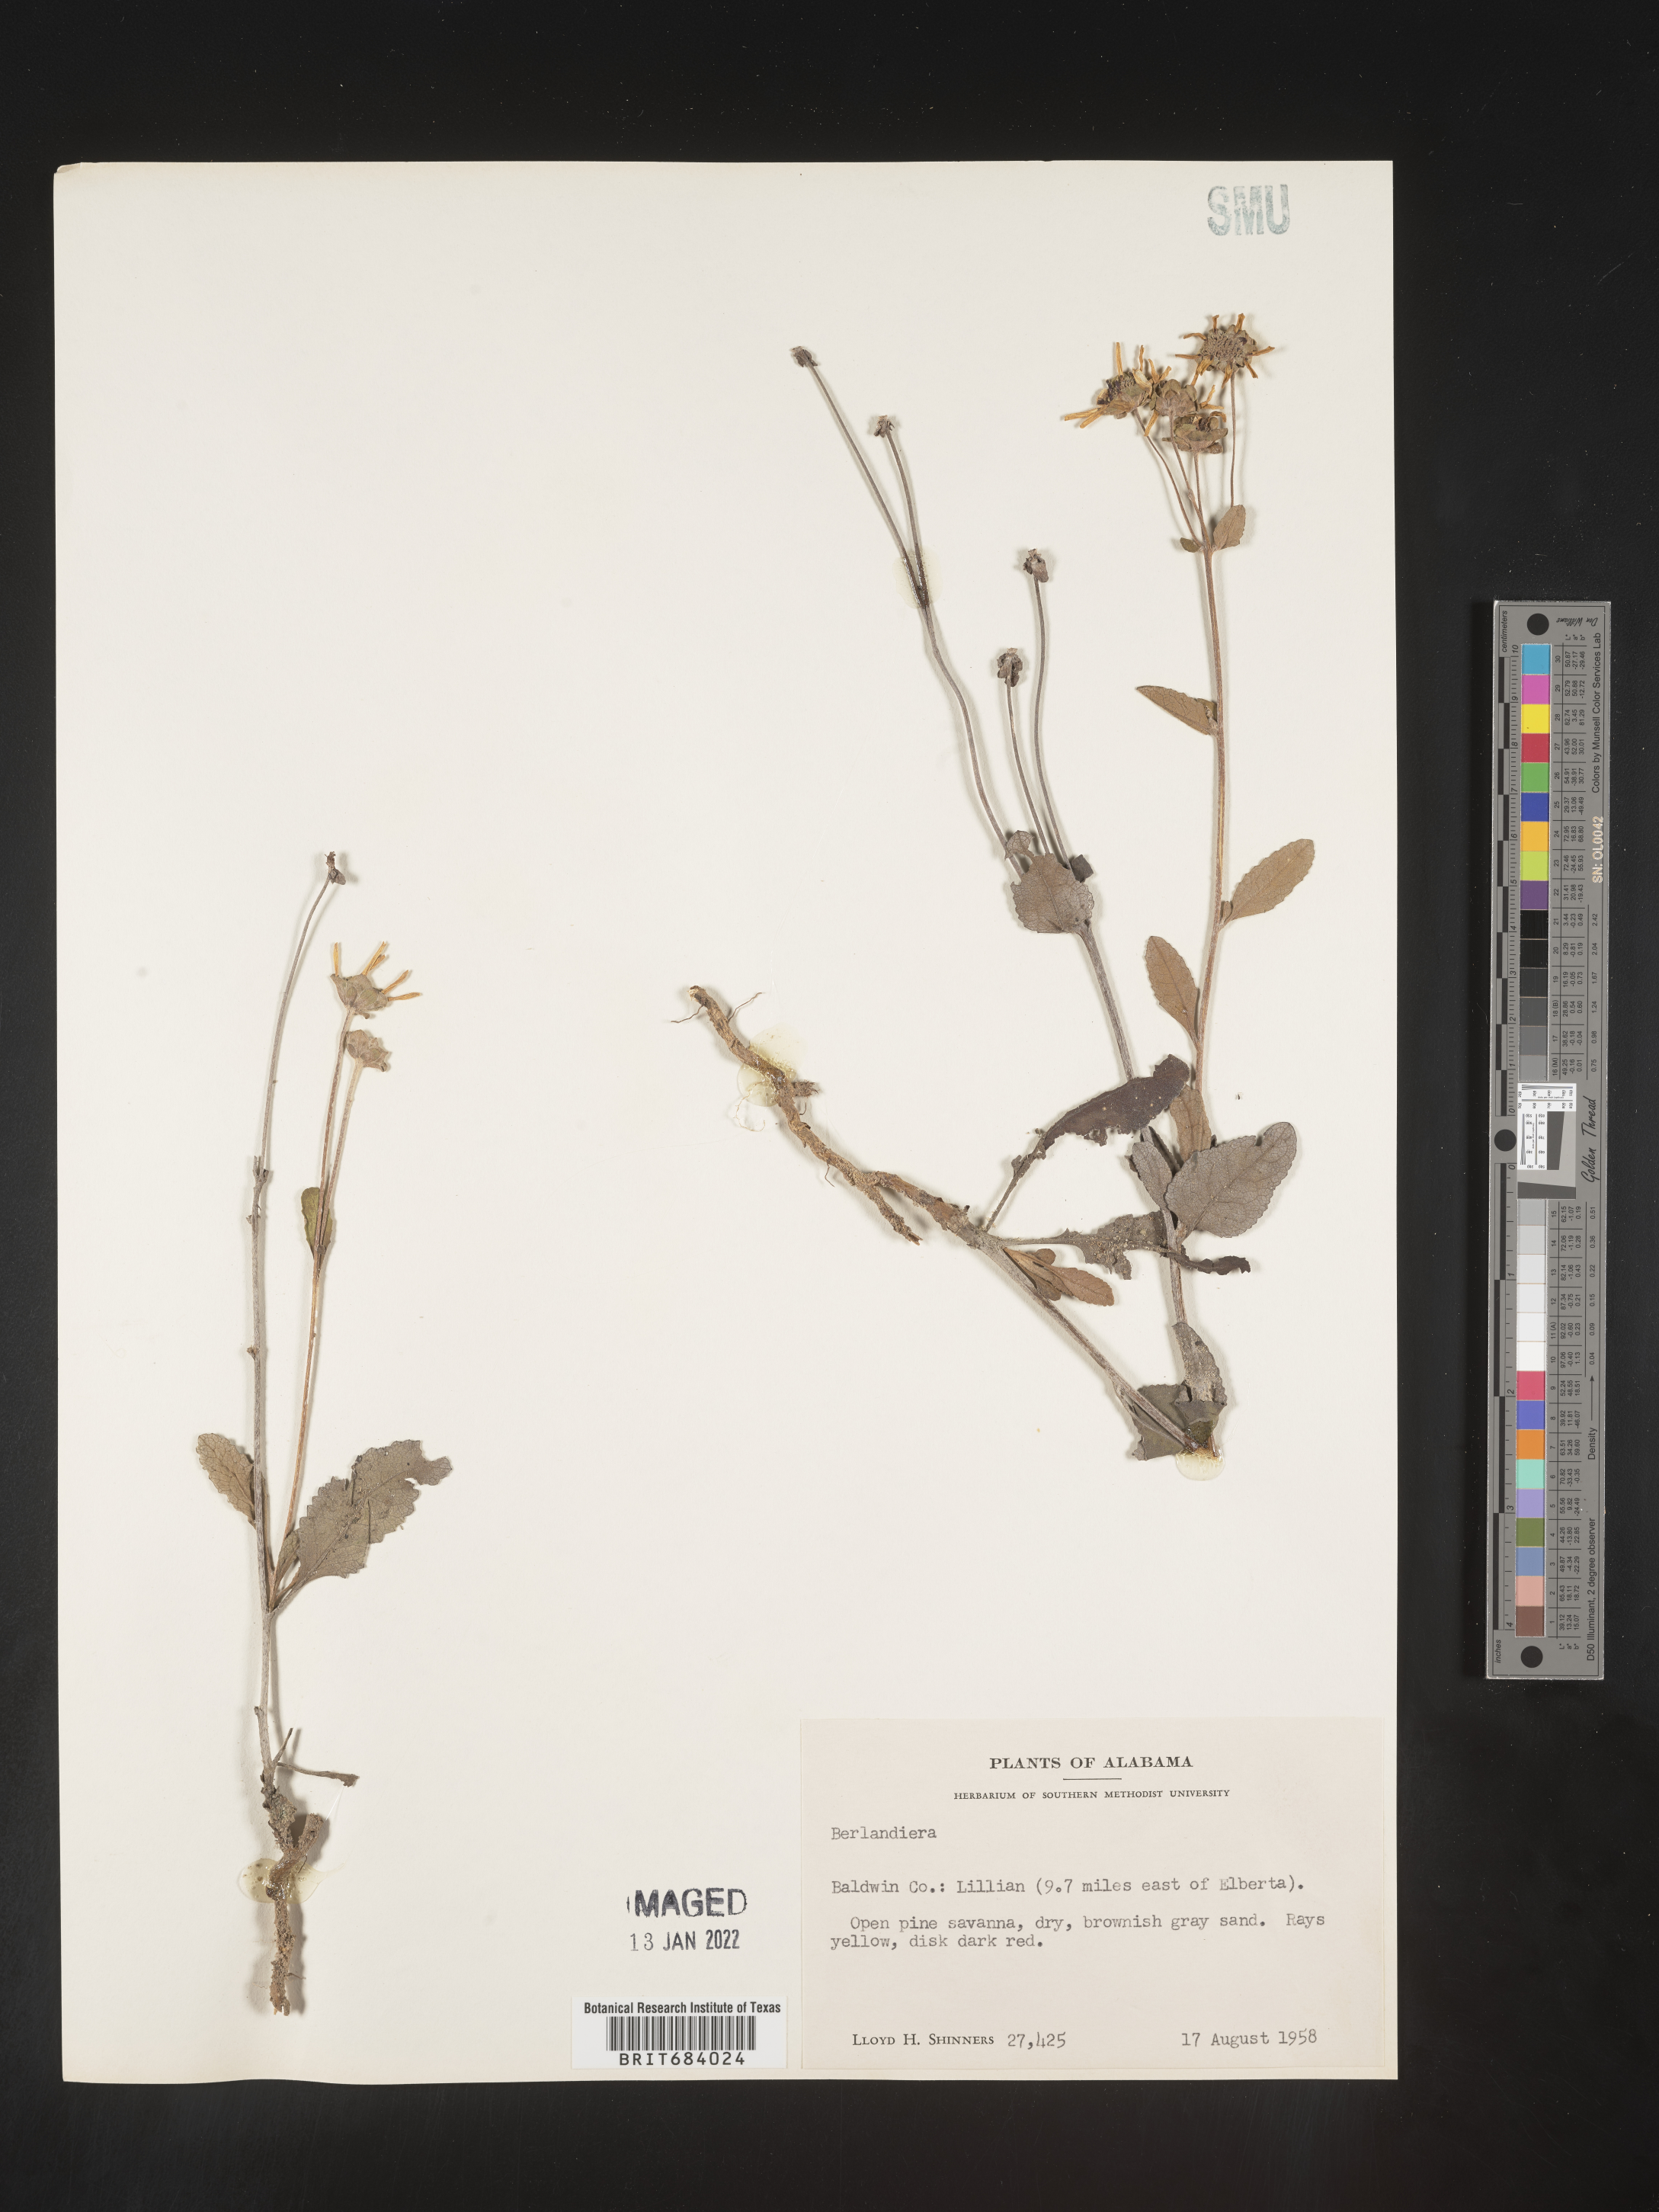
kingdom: Plantae
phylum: Tracheophyta
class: Magnoliopsida
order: Asterales
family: Asteraceae
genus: Berlandiera
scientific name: Berlandiera pumila
